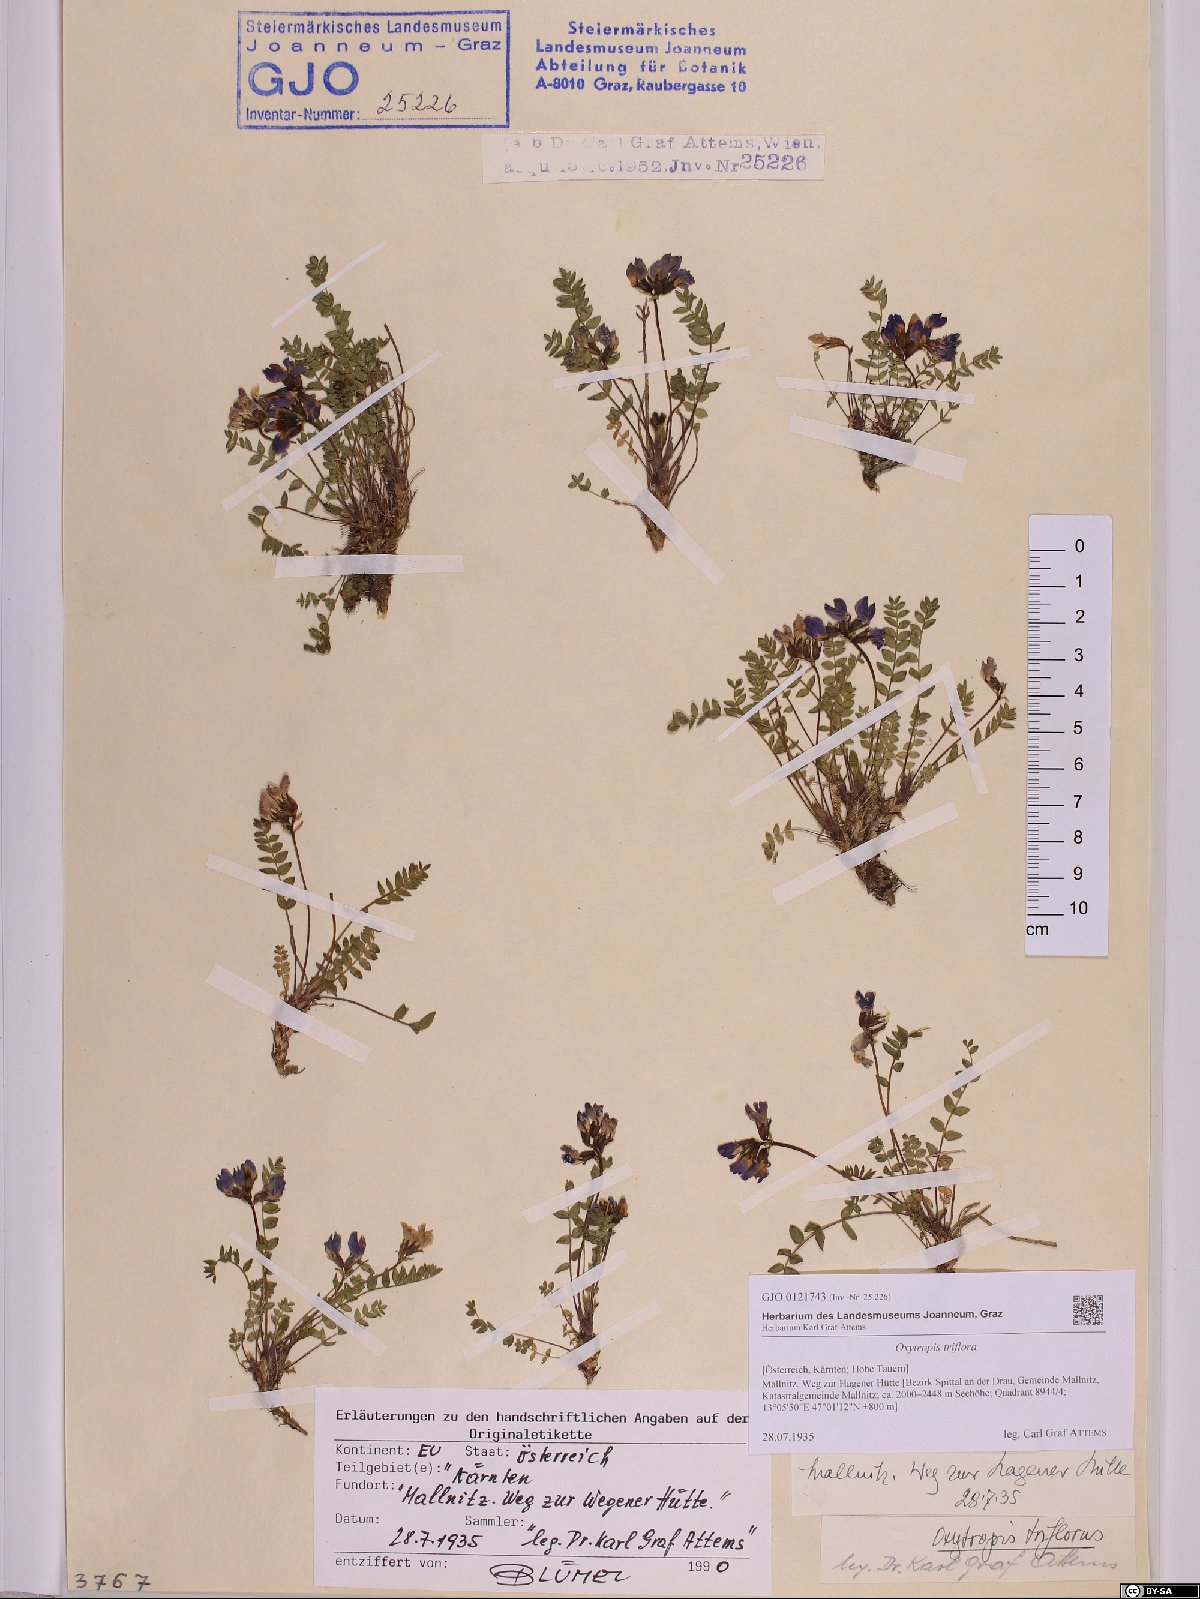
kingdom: Plantae
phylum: Tracheophyta
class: Magnoliopsida
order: Fabales
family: Fabaceae
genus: Oxytropis
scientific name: Oxytropis triflora
